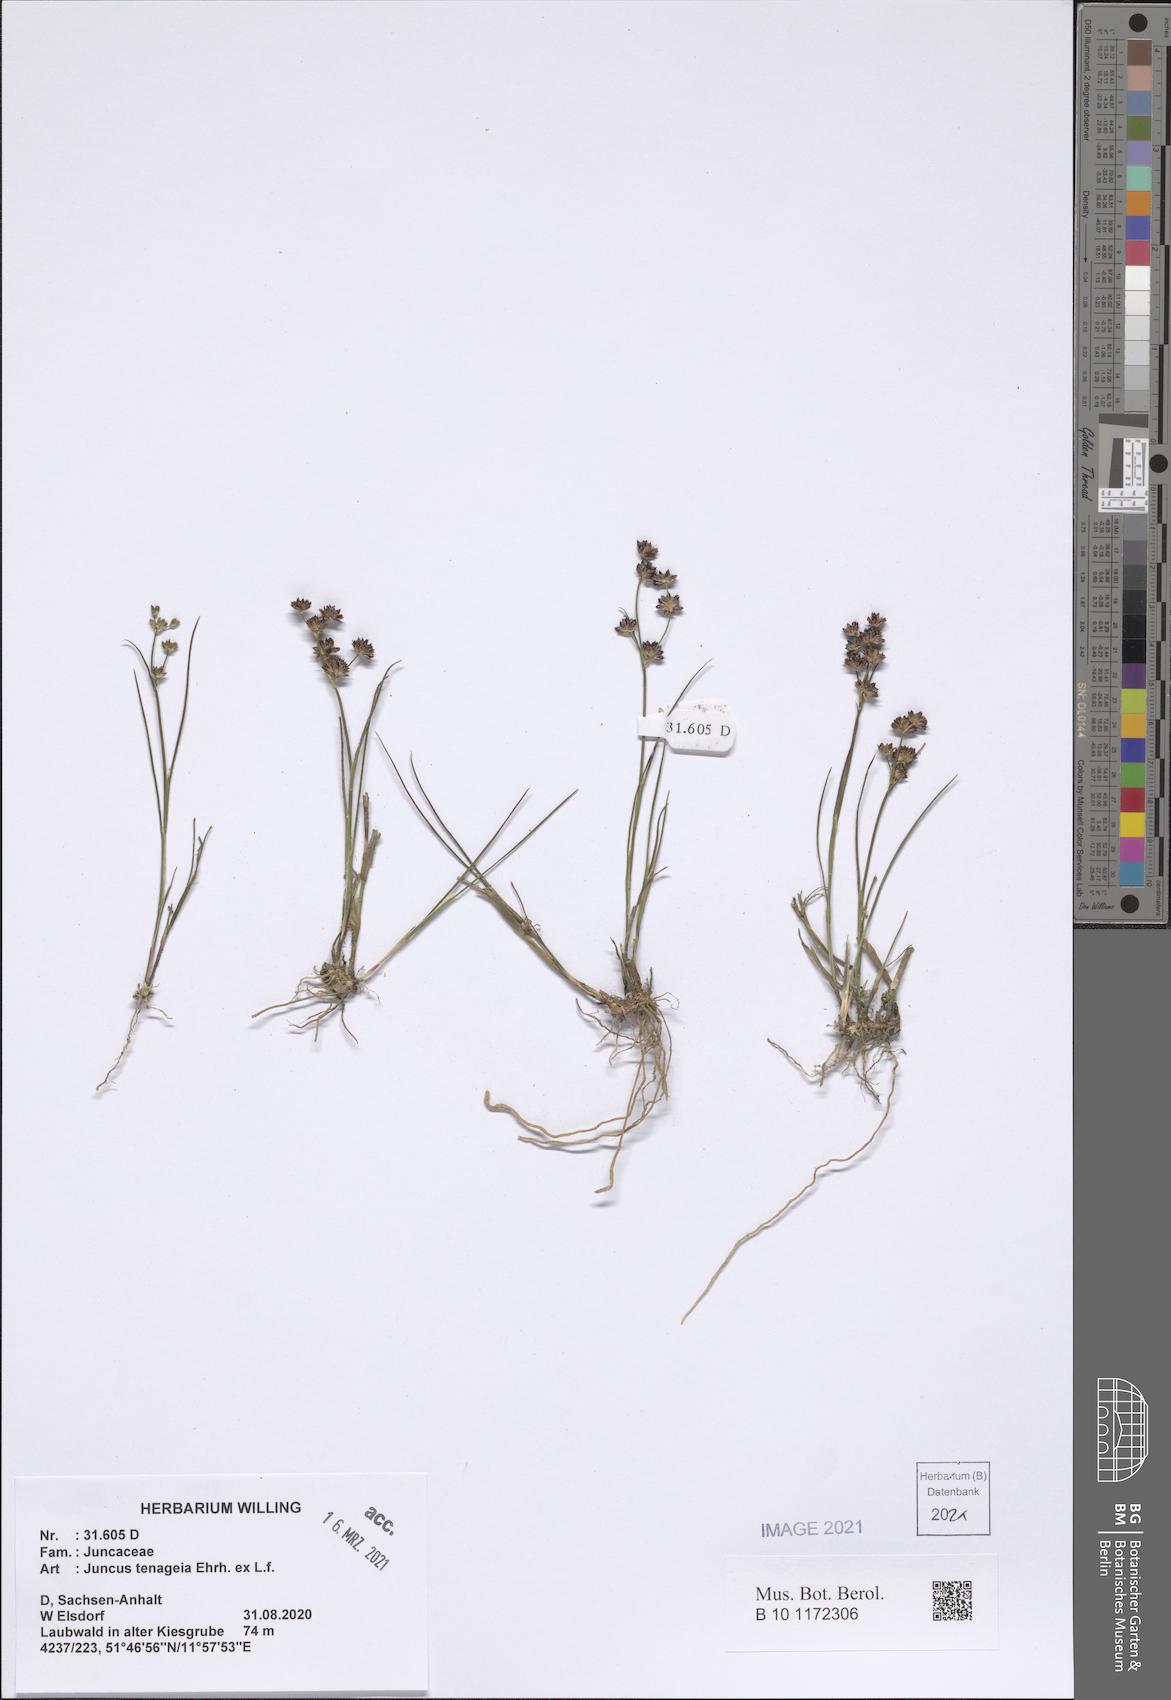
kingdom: Plantae
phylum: Tracheophyta
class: Liliopsida
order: Poales
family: Juncaceae
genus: Juncus
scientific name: Juncus tenageia
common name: Sand rush
